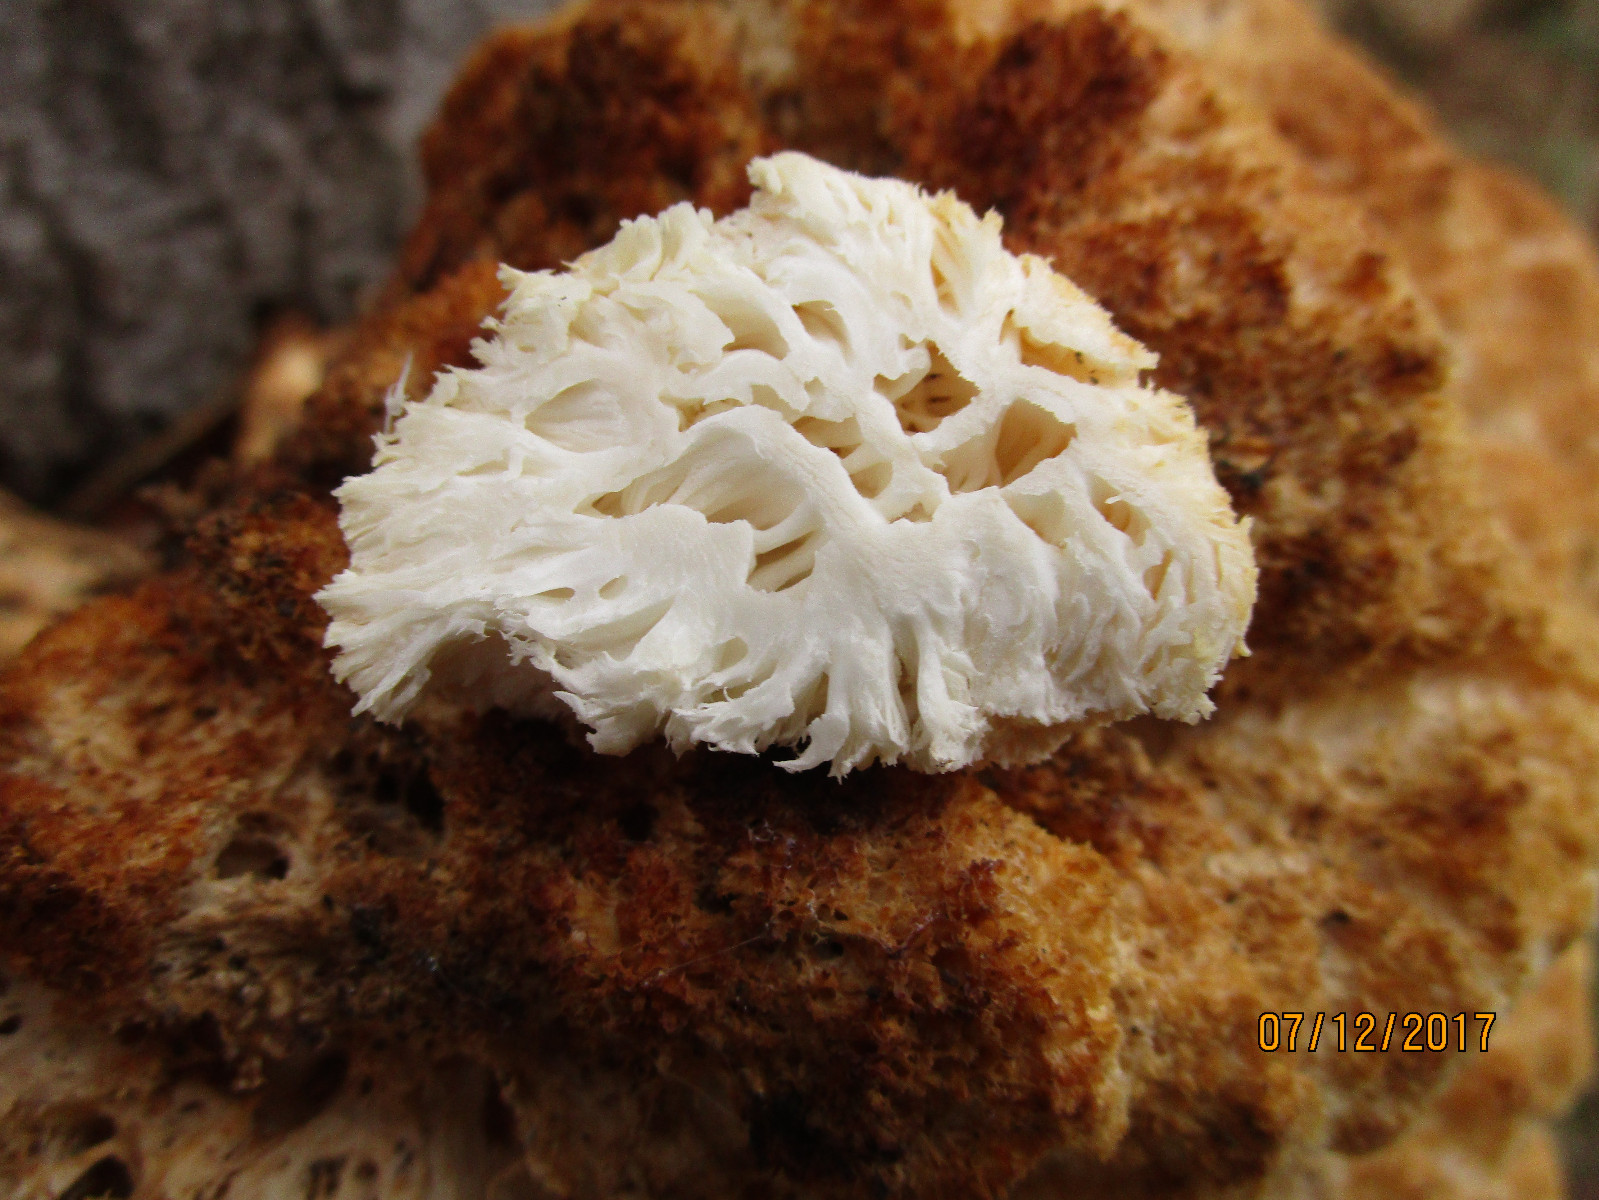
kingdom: Fungi
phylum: Basidiomycota
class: Agaricomycetes
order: Russulales
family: Hericiaceae
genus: Hericium
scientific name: Hericium coralloides
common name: koralpigsvamp
